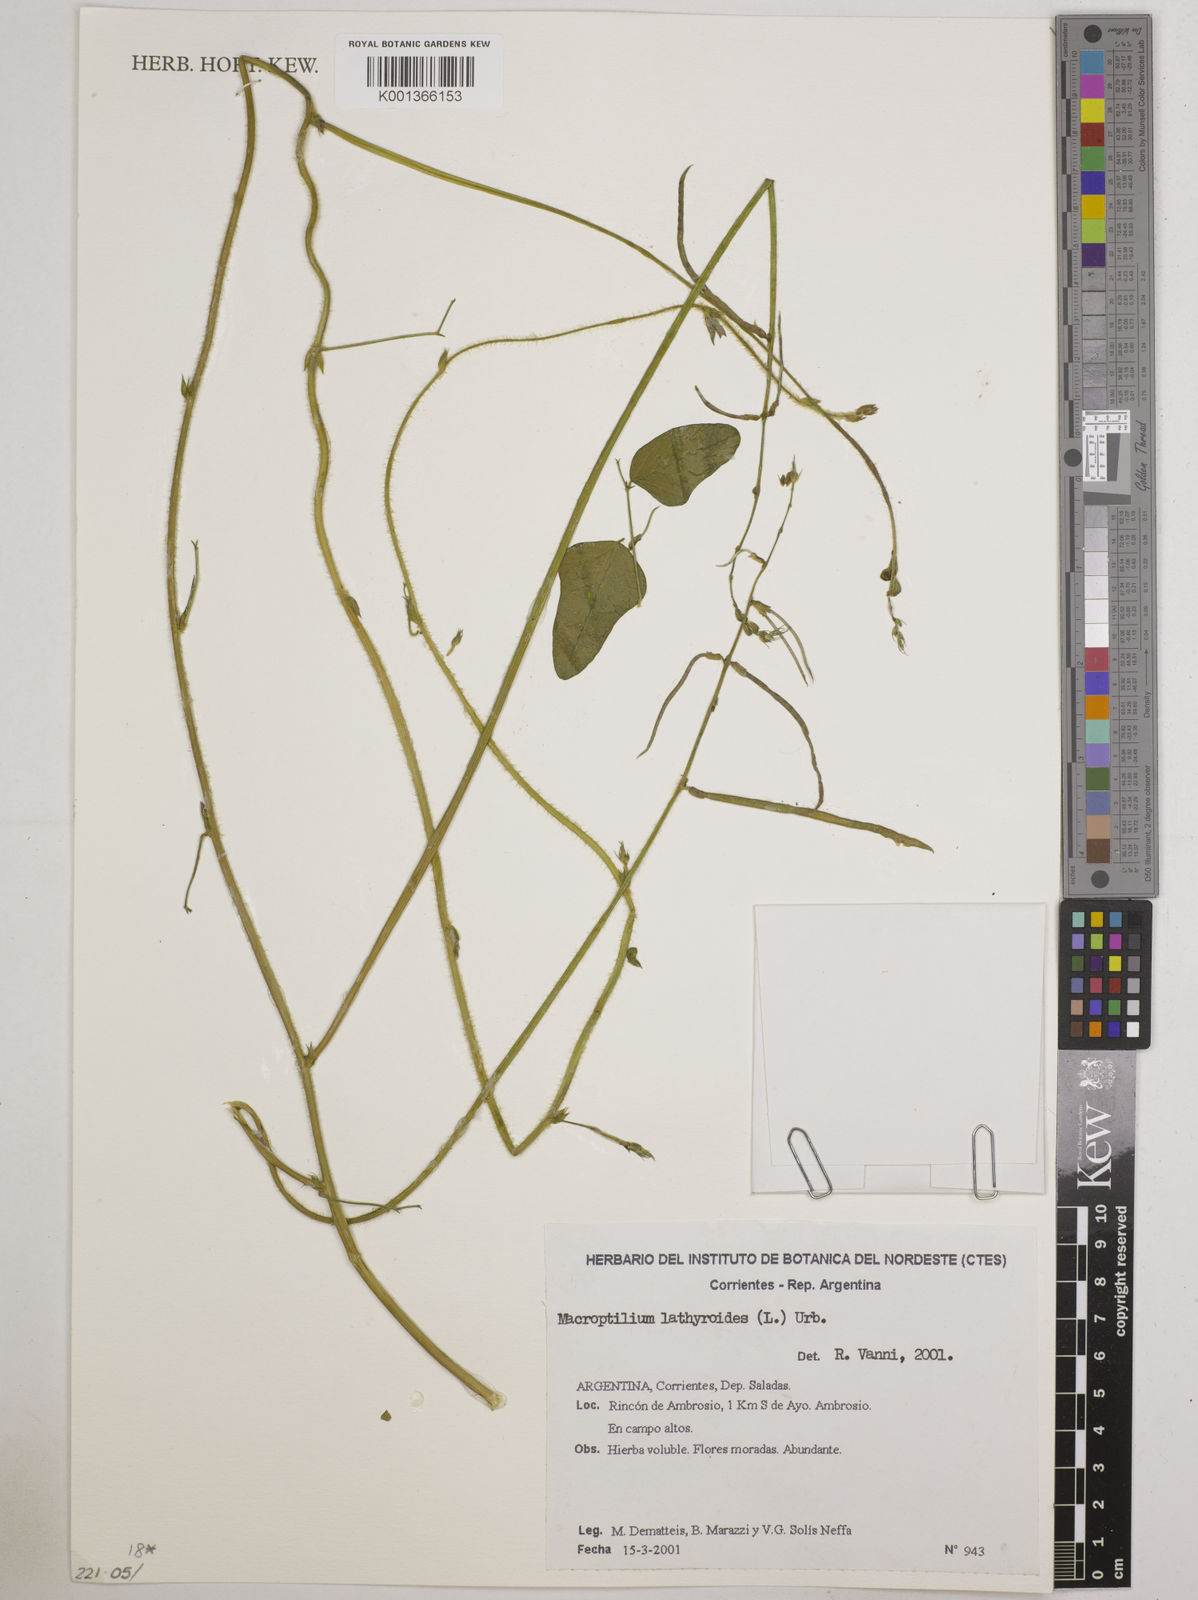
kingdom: Plantae
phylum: Tracheophyta
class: Magnoliopsida
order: Fabales
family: Fabaceae
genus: Macroptilium
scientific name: Macroptilium lathyroides
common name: Wild bushbean
